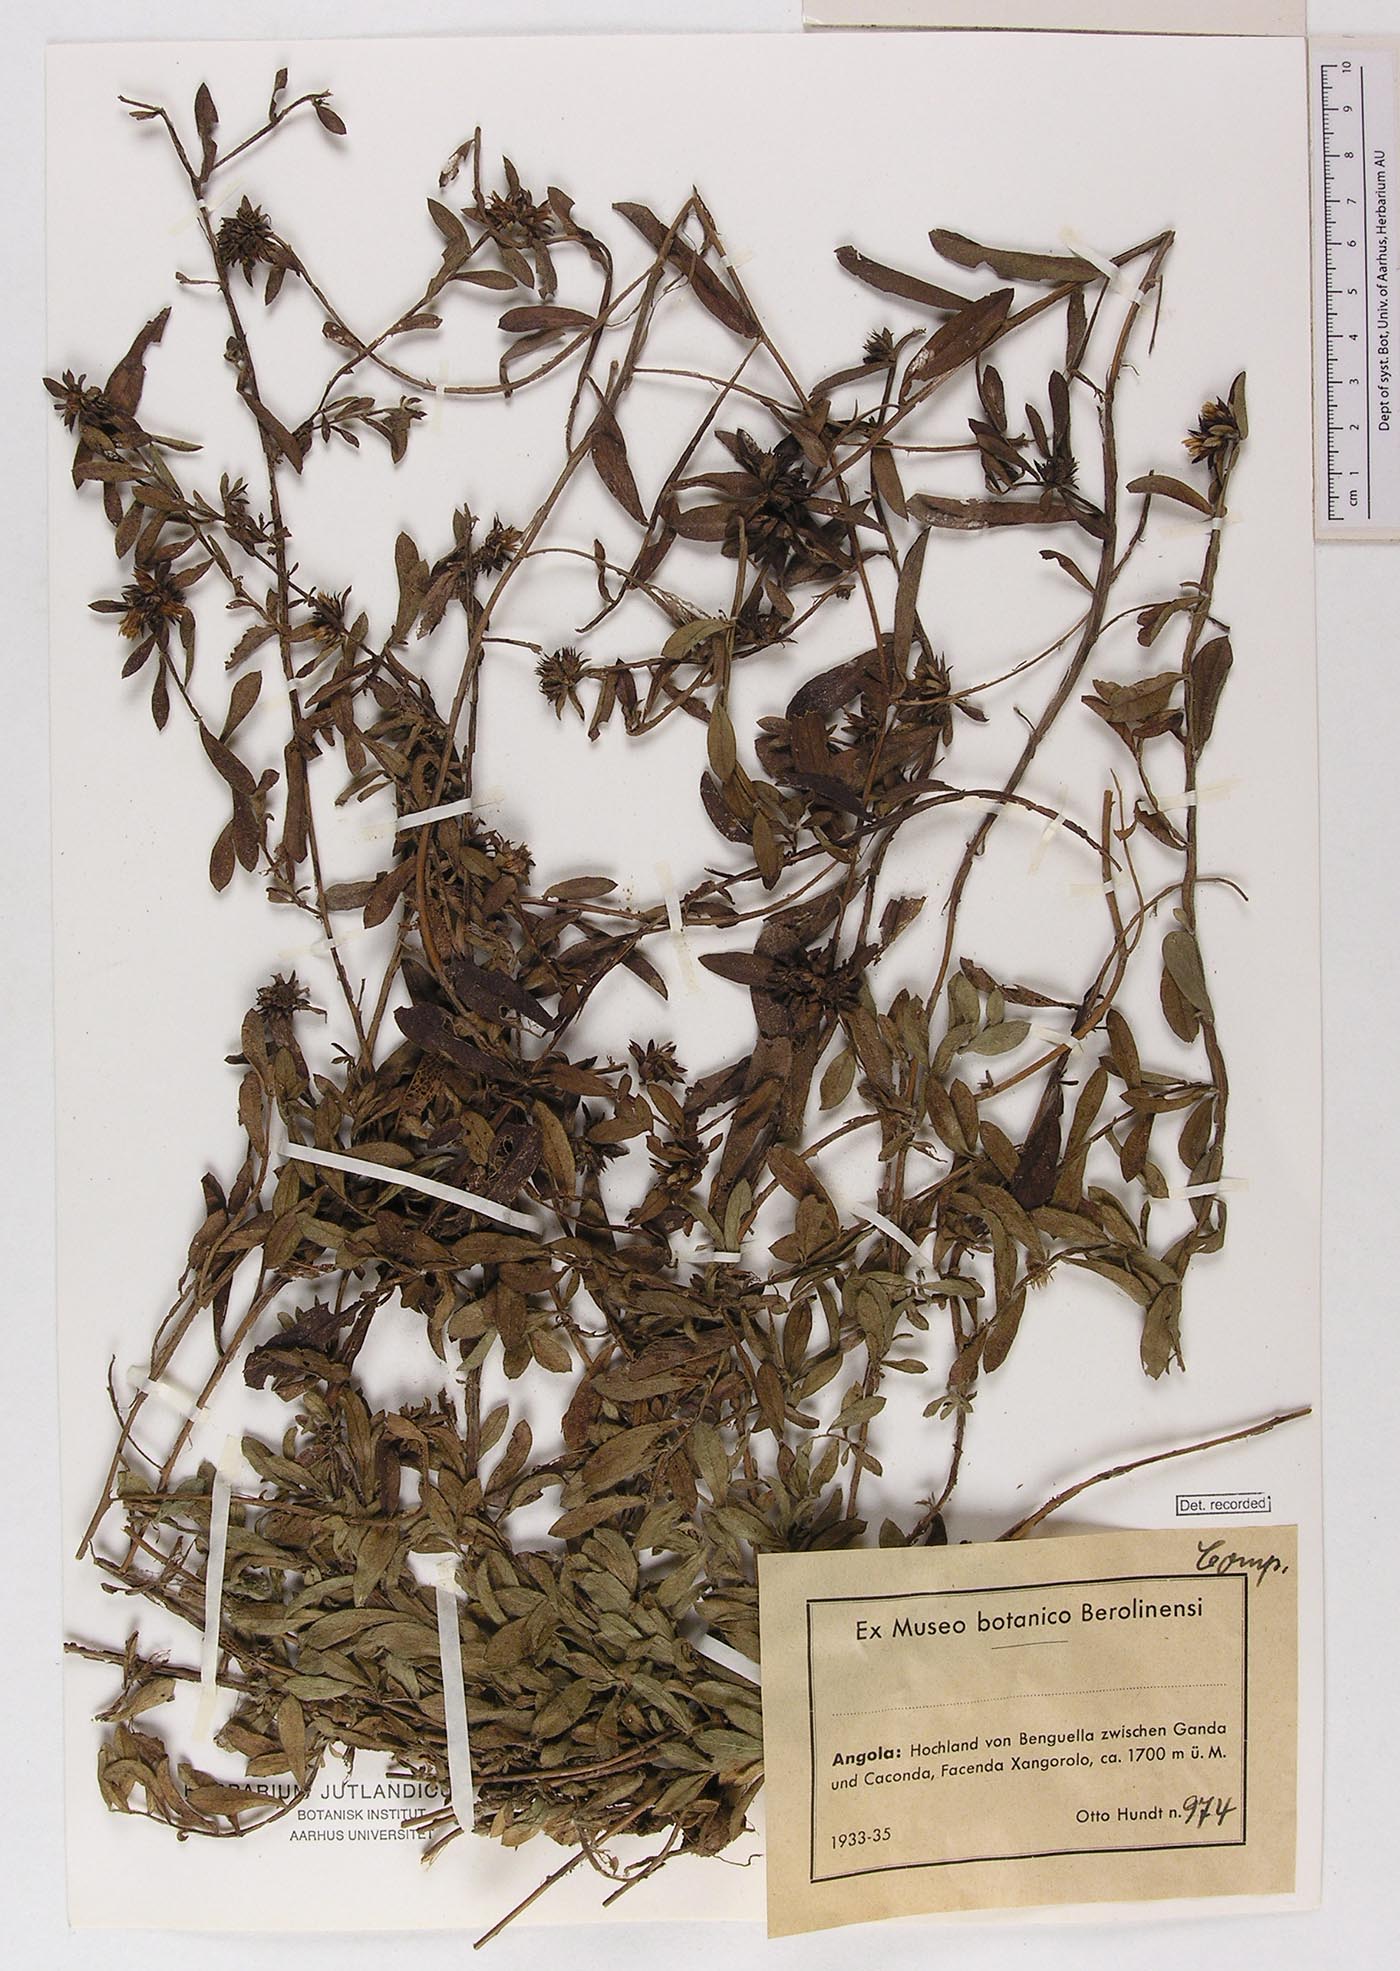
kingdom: Plantae
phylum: Tracheophyta
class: Magnoliopsida
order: Asterales
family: Asteraceae
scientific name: Asteraceae
